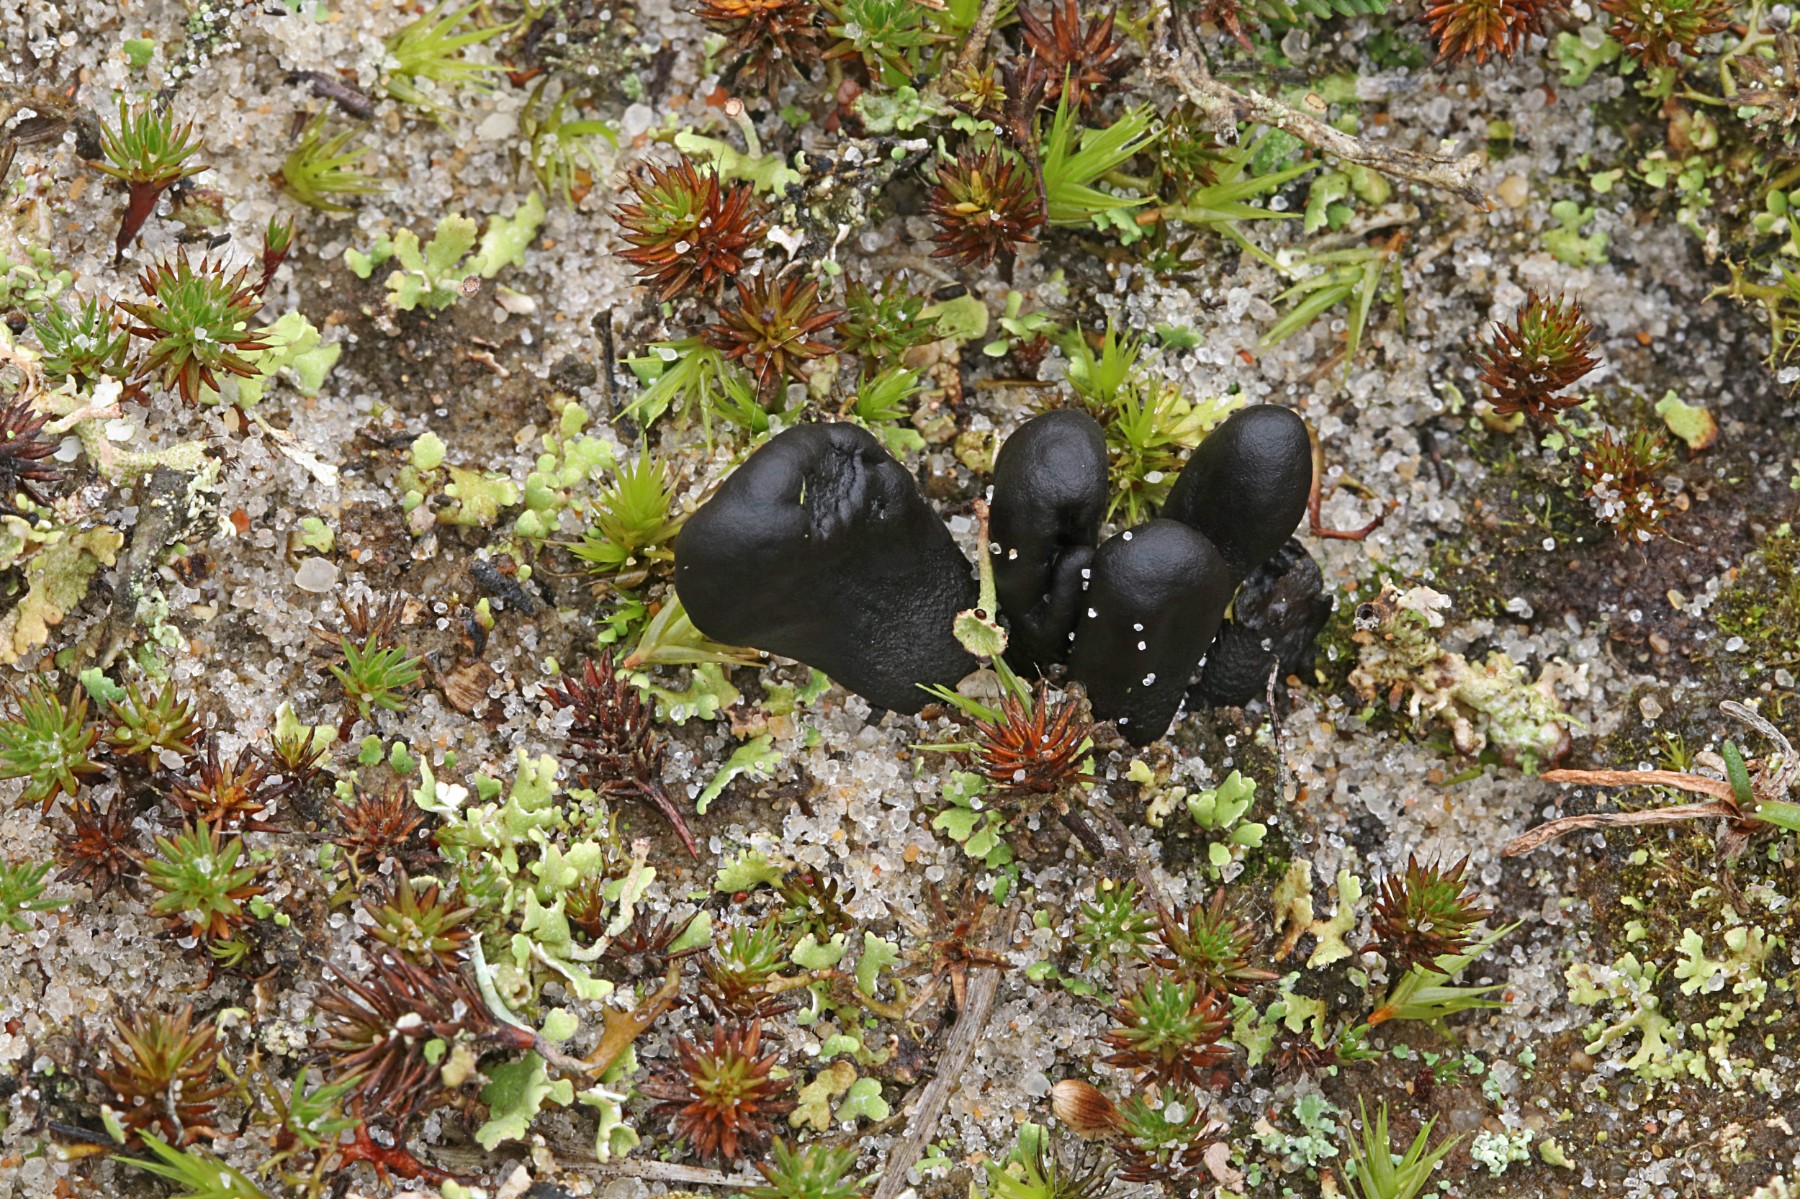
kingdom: Fungi
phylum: Ascomycota
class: Geoglossomycetes
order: Geoglossales
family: Geoglossaceae
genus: Sabuloglossum
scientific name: Sabuloglossum arenarium
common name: klit-jordtunge
